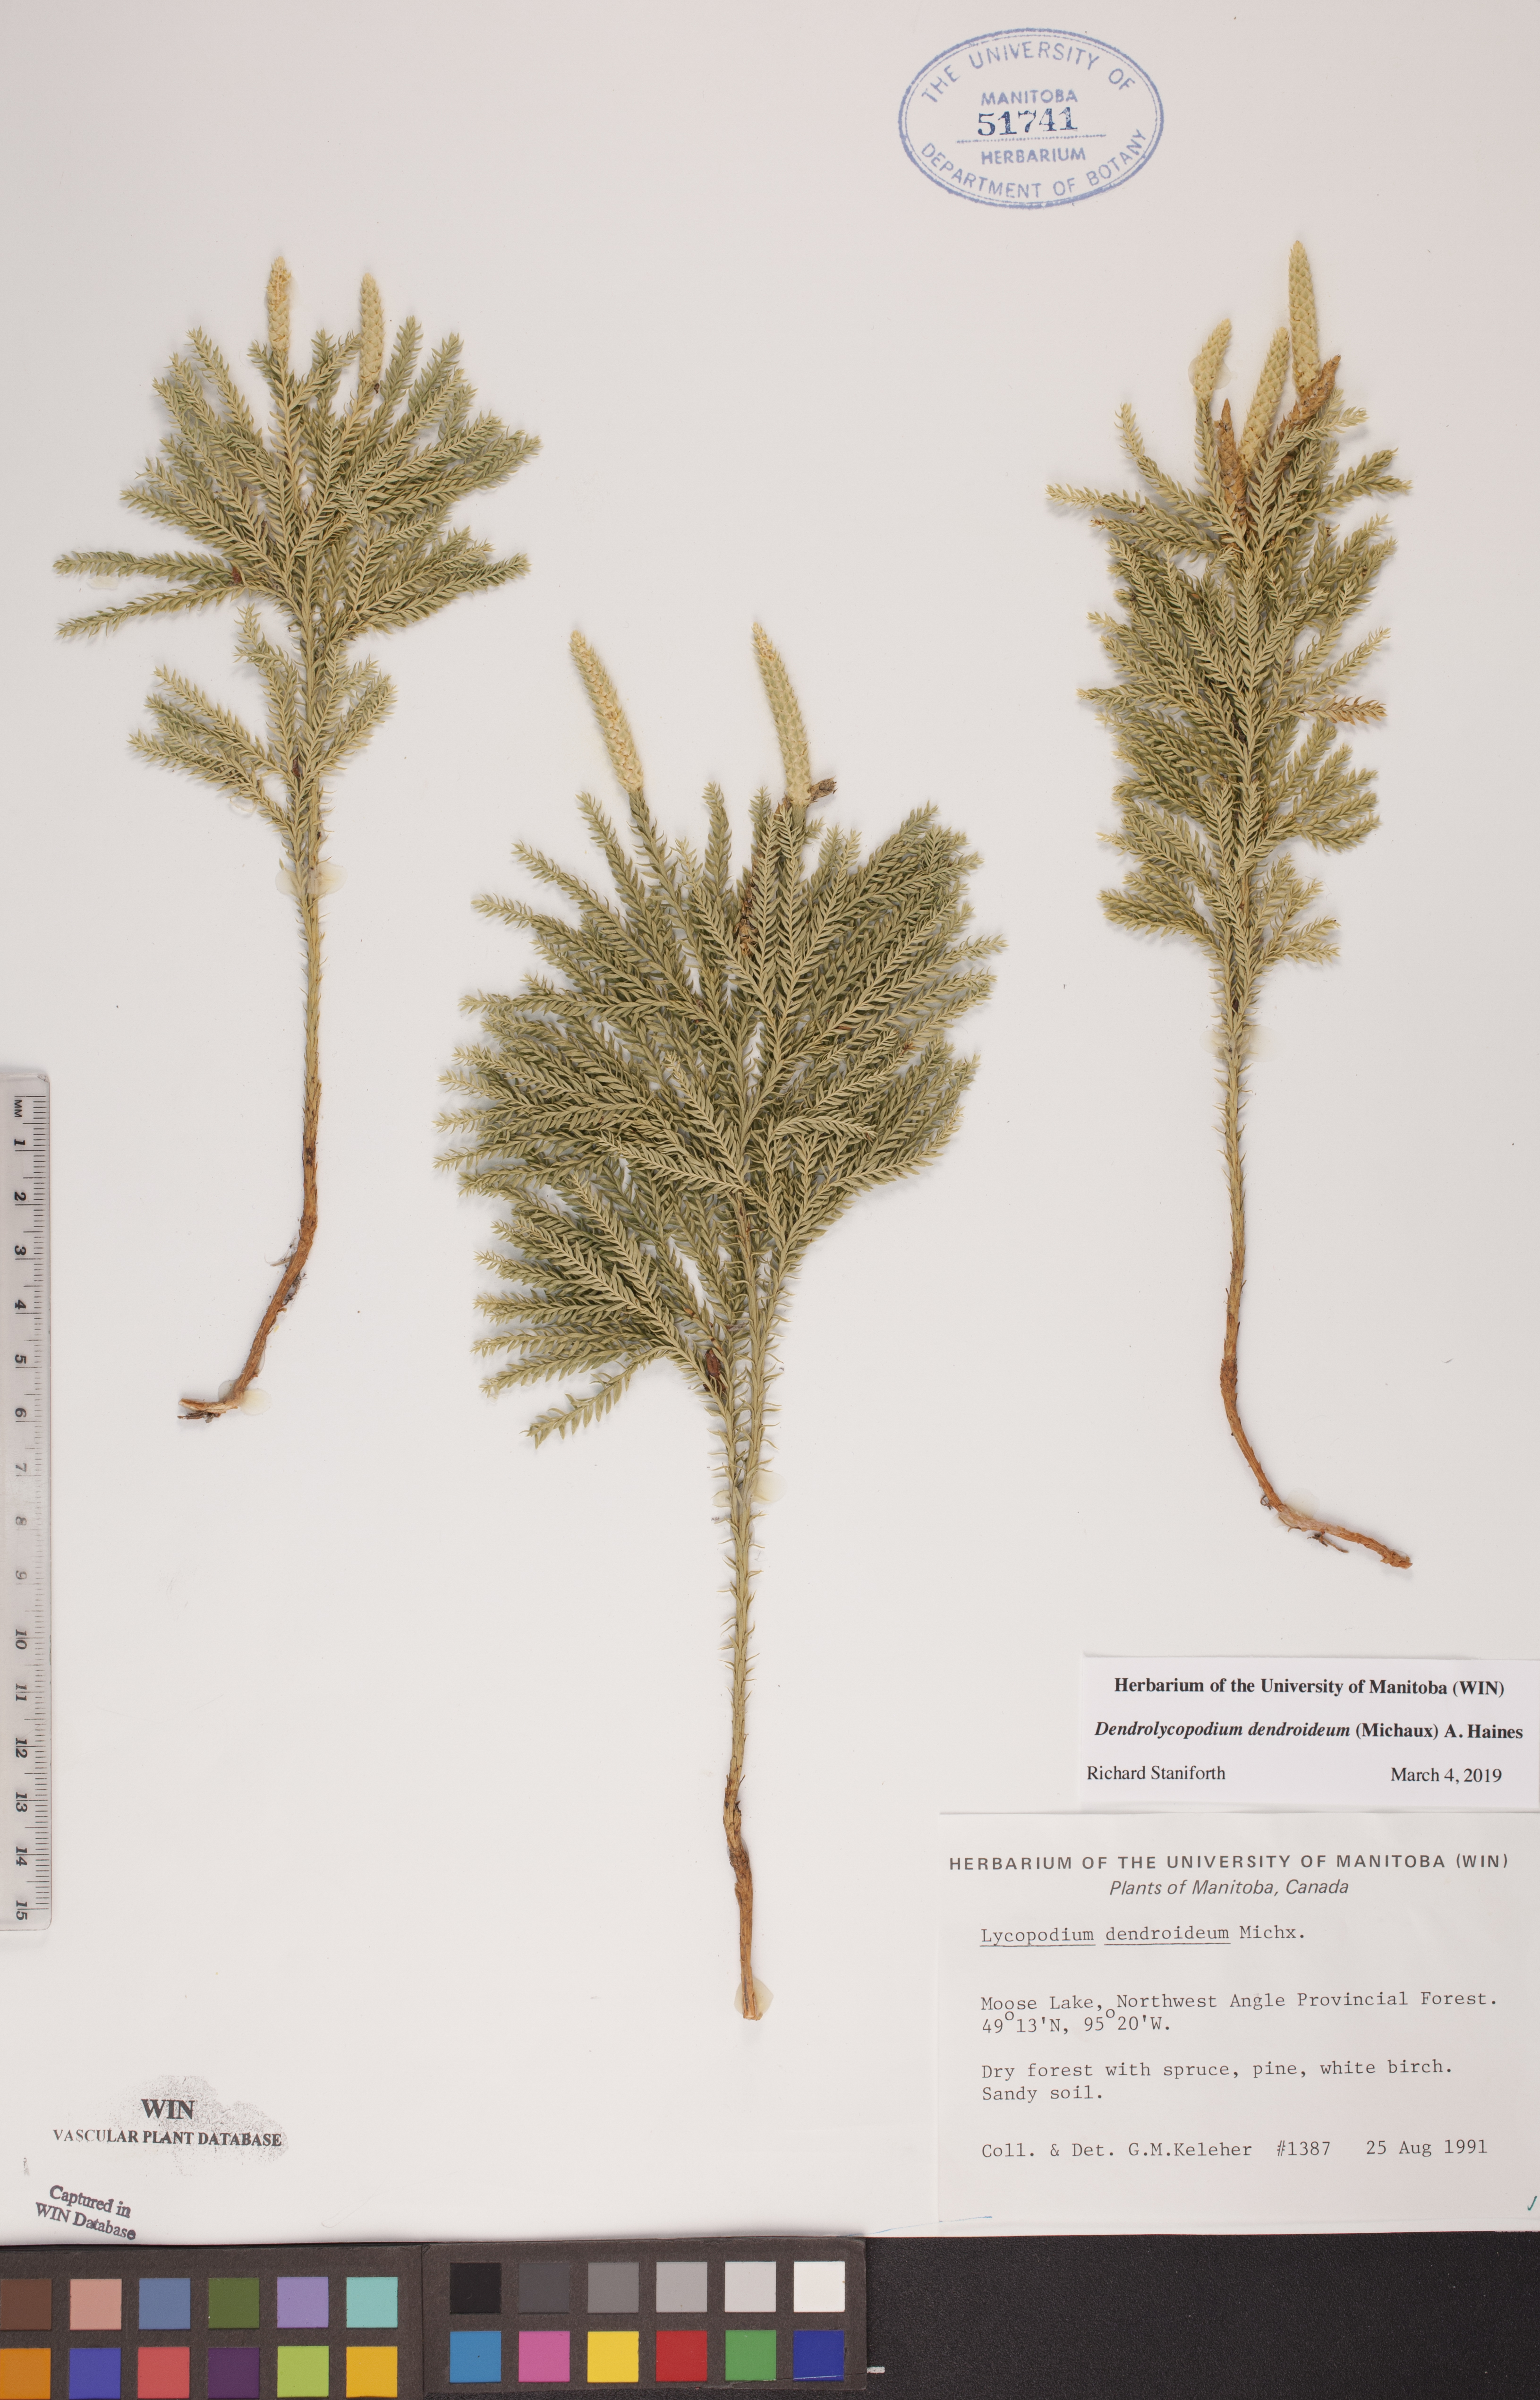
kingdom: Plantae
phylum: Tracheophyta
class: Lycopodiopsida
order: Lycopodiales
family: Lycopodiaceae
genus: Dendrolycopodium
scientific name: Dendrolycopodium dendroideum
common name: Northern tree-clubmoss
